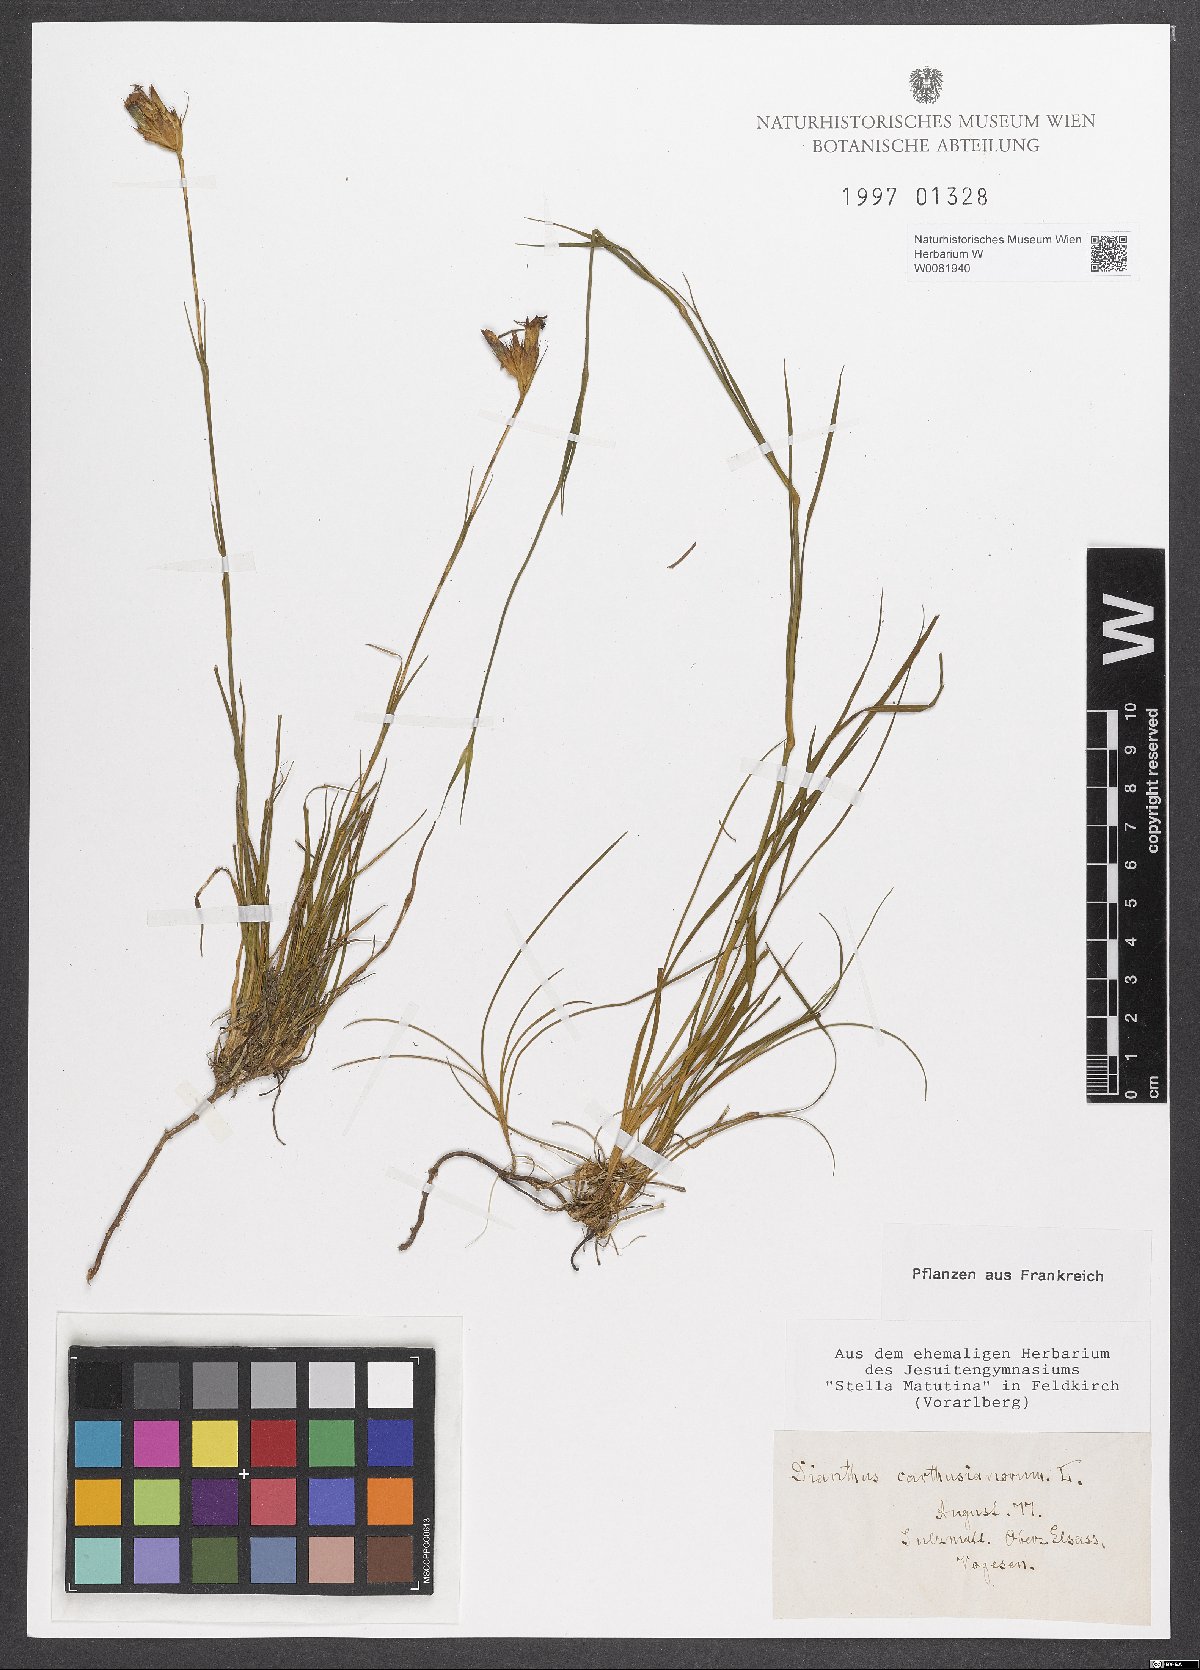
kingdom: Plantae
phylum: Tracheophyta
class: Magnoliopsida
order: Caryophyllales
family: Caryophyllaceae
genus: Dianthus
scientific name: Dianthus carthusianorum
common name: Carthusian pink
